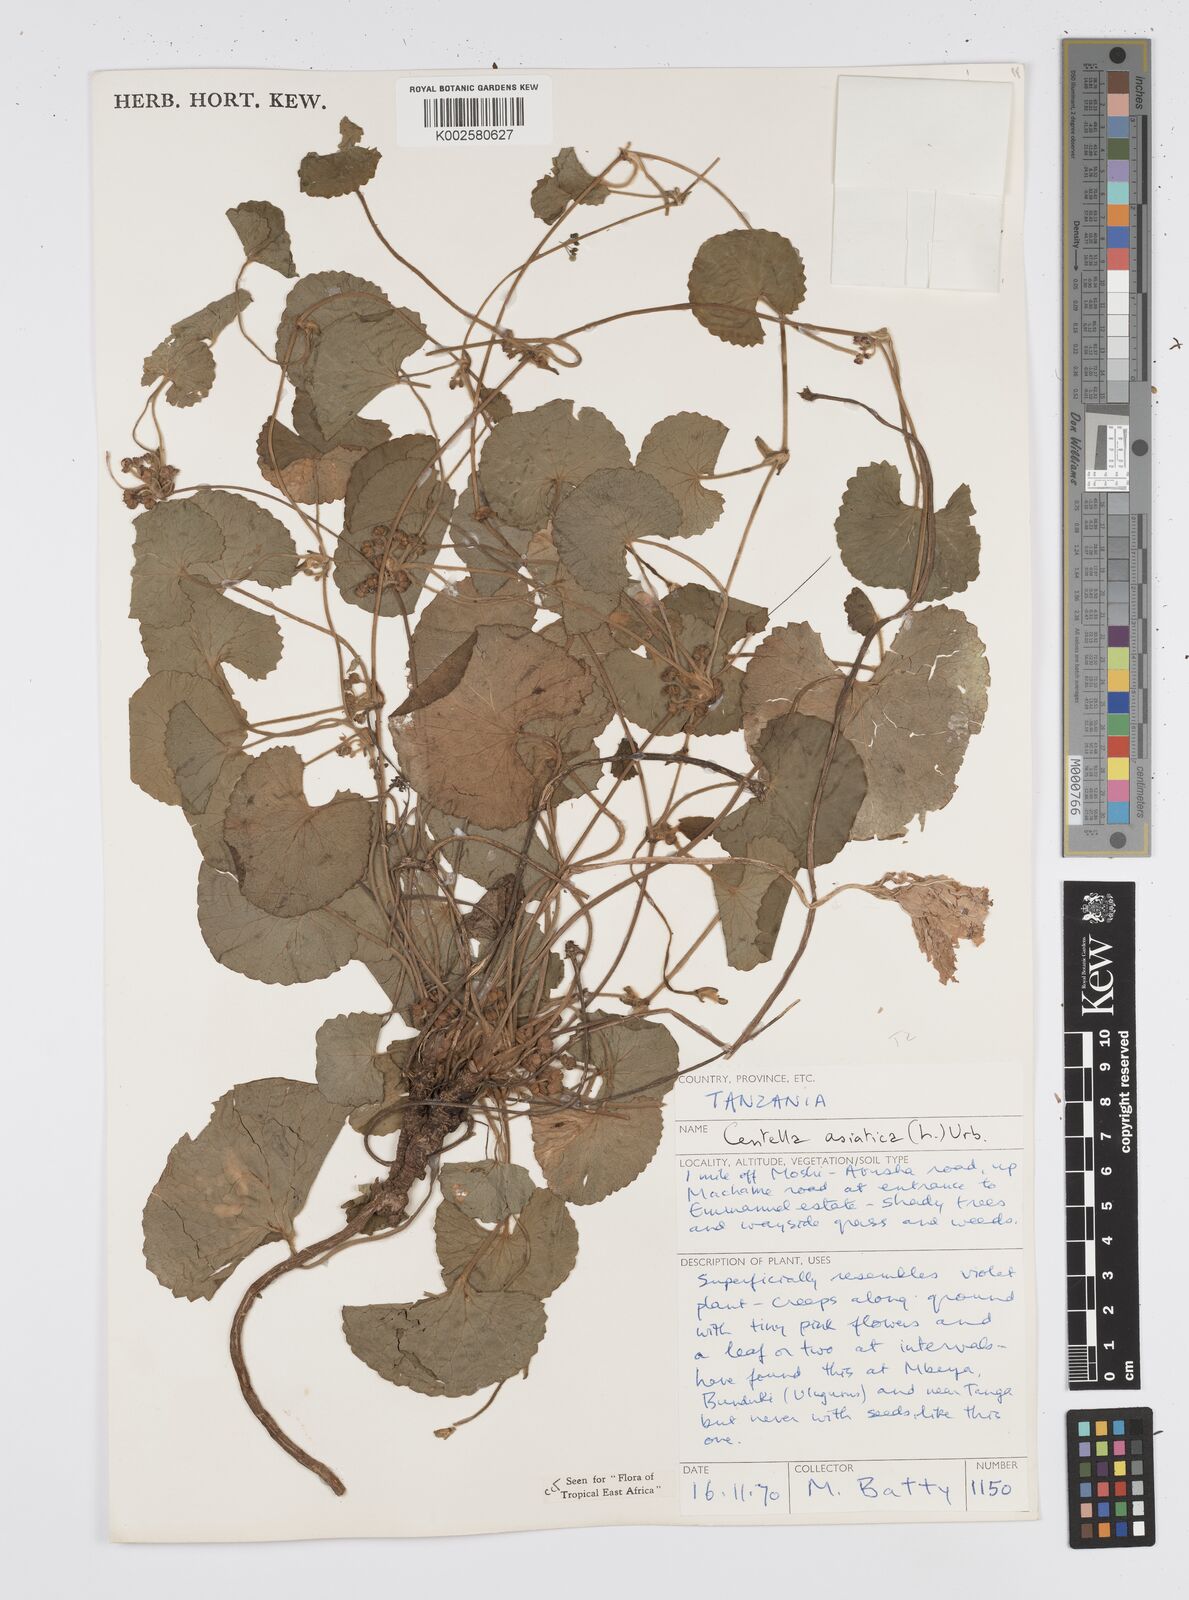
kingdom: Plantae
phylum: Tracheophyta
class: Magnoliopsida
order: Apiales
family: Apiaceae
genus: Centella
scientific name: Centella asiatica
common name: Spadeleaf
